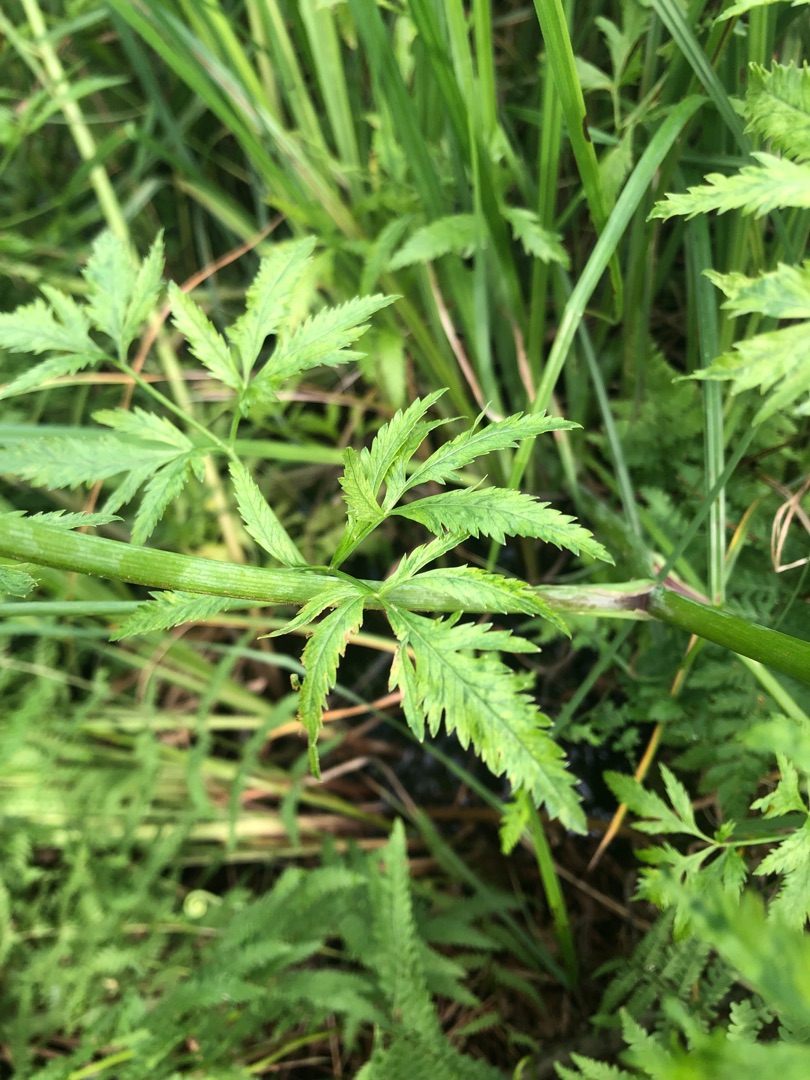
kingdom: Plantae
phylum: Tracheophyta
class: Magnoliopsida
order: Apiales
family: Apiaceae
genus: Cicuta
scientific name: Cicuta virosa
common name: Gifttyde
